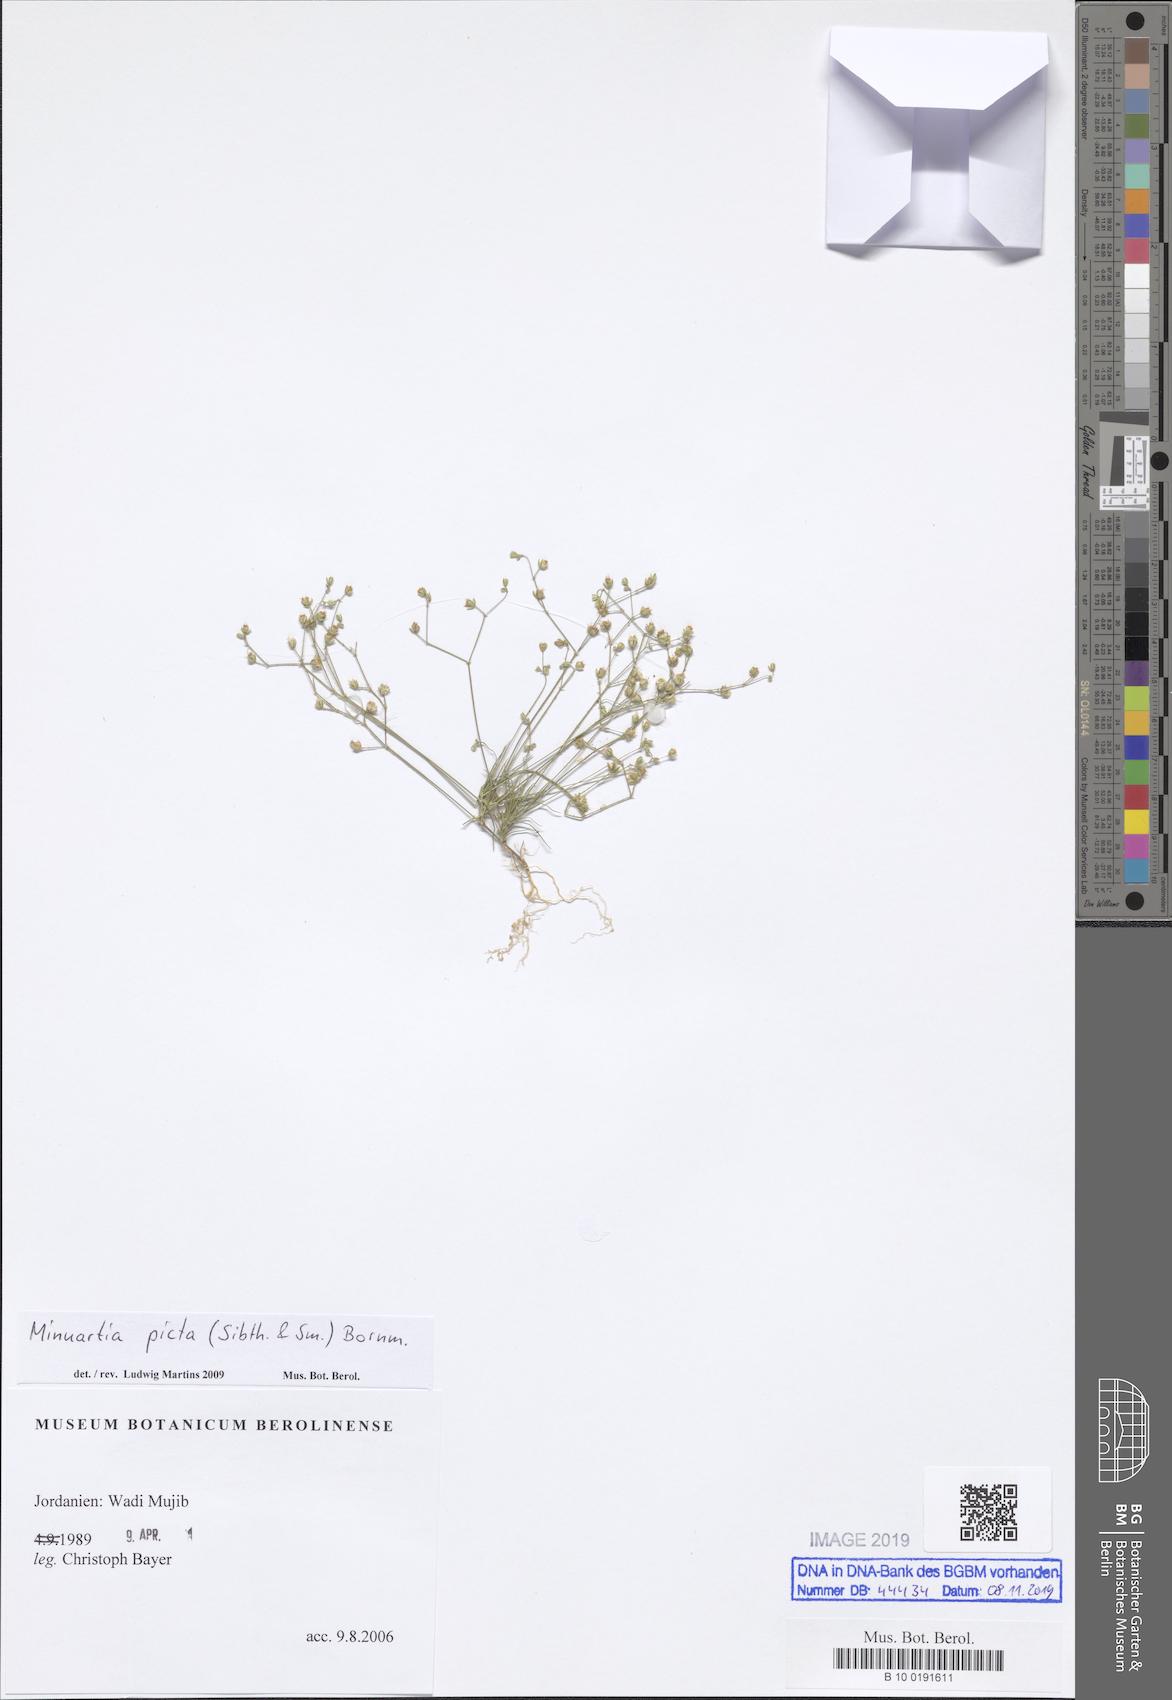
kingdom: Plantae
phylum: Tracheophyta
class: Magnoliopsida
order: Caryophyllales
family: Caryophyllaceae
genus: Eremogone
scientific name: Eremogone picta
